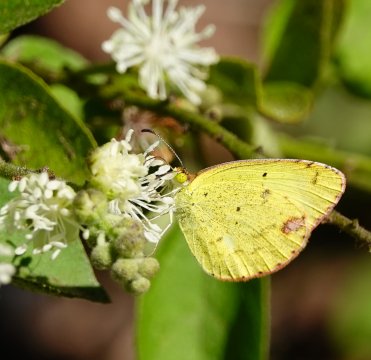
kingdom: Animalia
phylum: Arthropoda
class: Insecta
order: Lepidoptera
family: Pieridae
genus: Pyrisitia
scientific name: Pyrisitia lisa
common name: Little Yellow
